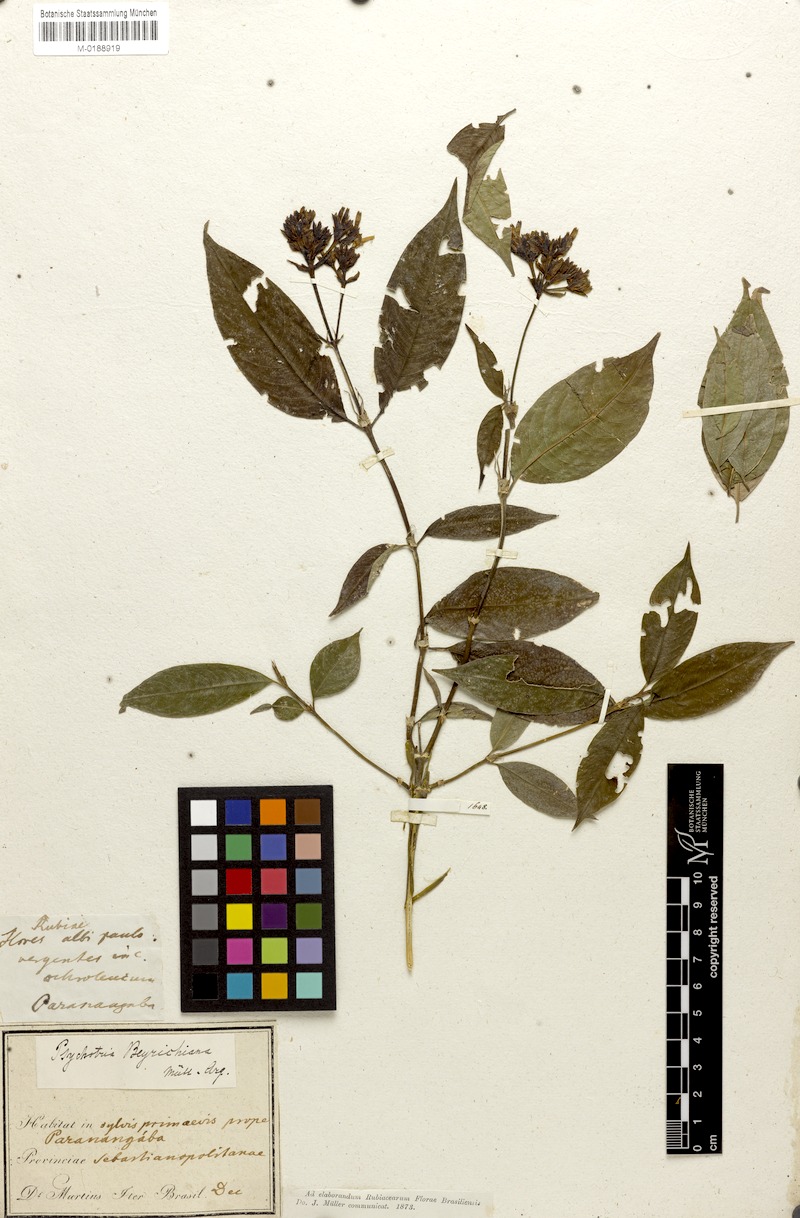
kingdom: Plantae
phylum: Tracheophyta
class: Magnoliopsida
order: Gentianales
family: Rubiaceae
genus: Psychotria
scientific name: Psychotria beyrichiana
